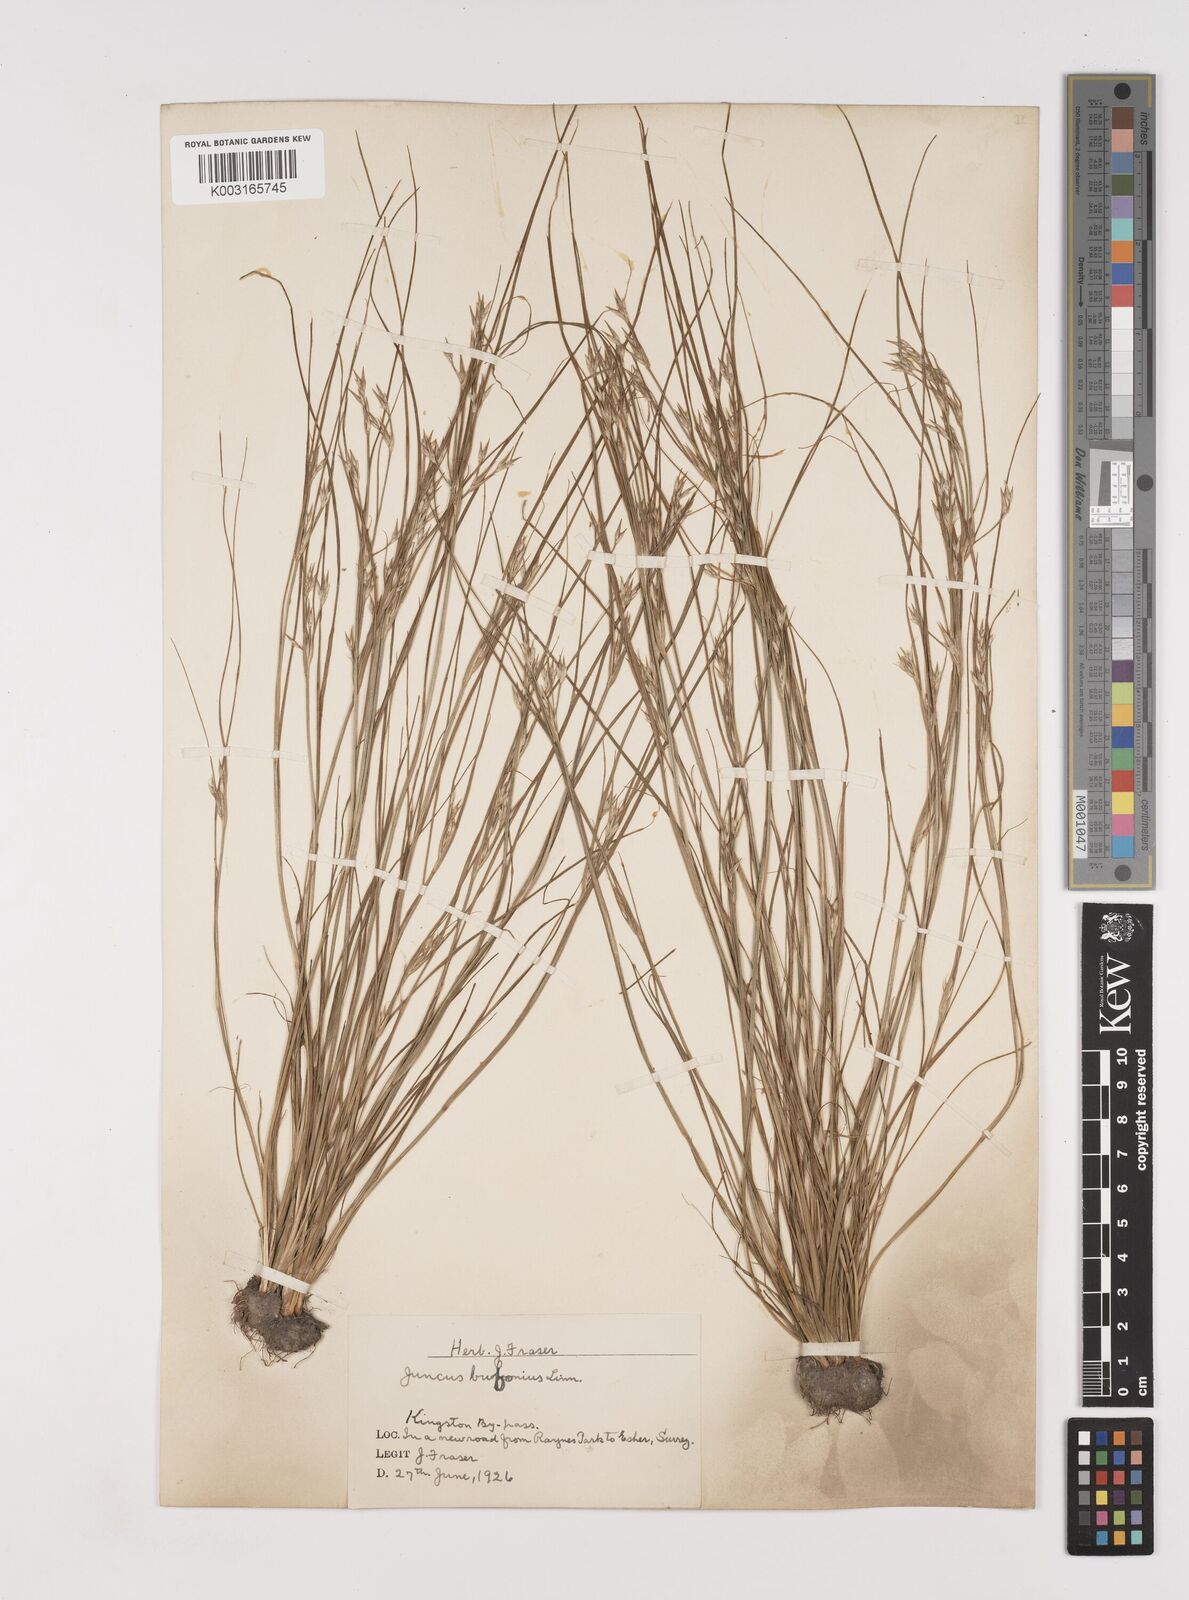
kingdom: Plantae
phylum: Tracheophyta
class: Liliopsida
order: Poales
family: Juncaceae
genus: Juncus
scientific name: Juncus bufonius
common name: Toad rush
